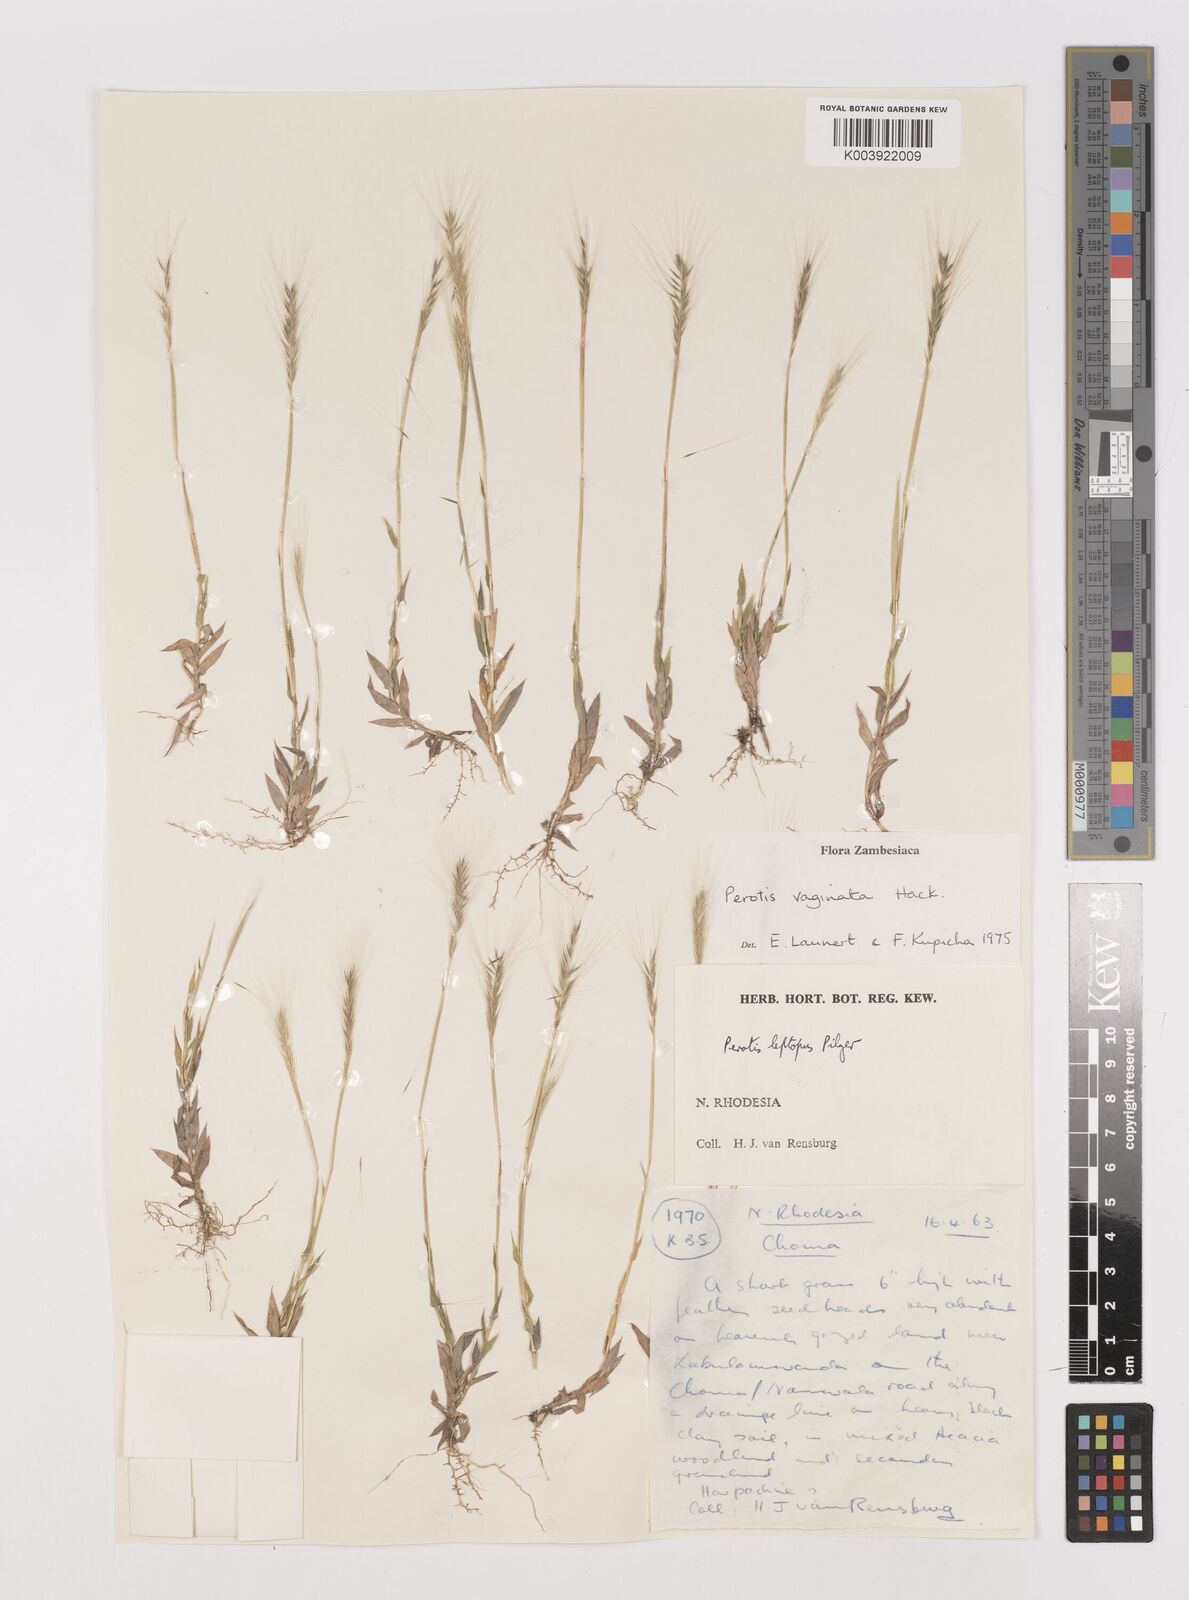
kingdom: Plantae
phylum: Tracheophyta
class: Liliopsida
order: Poales
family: Poaceae
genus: Perotis
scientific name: Perotis vaginata
